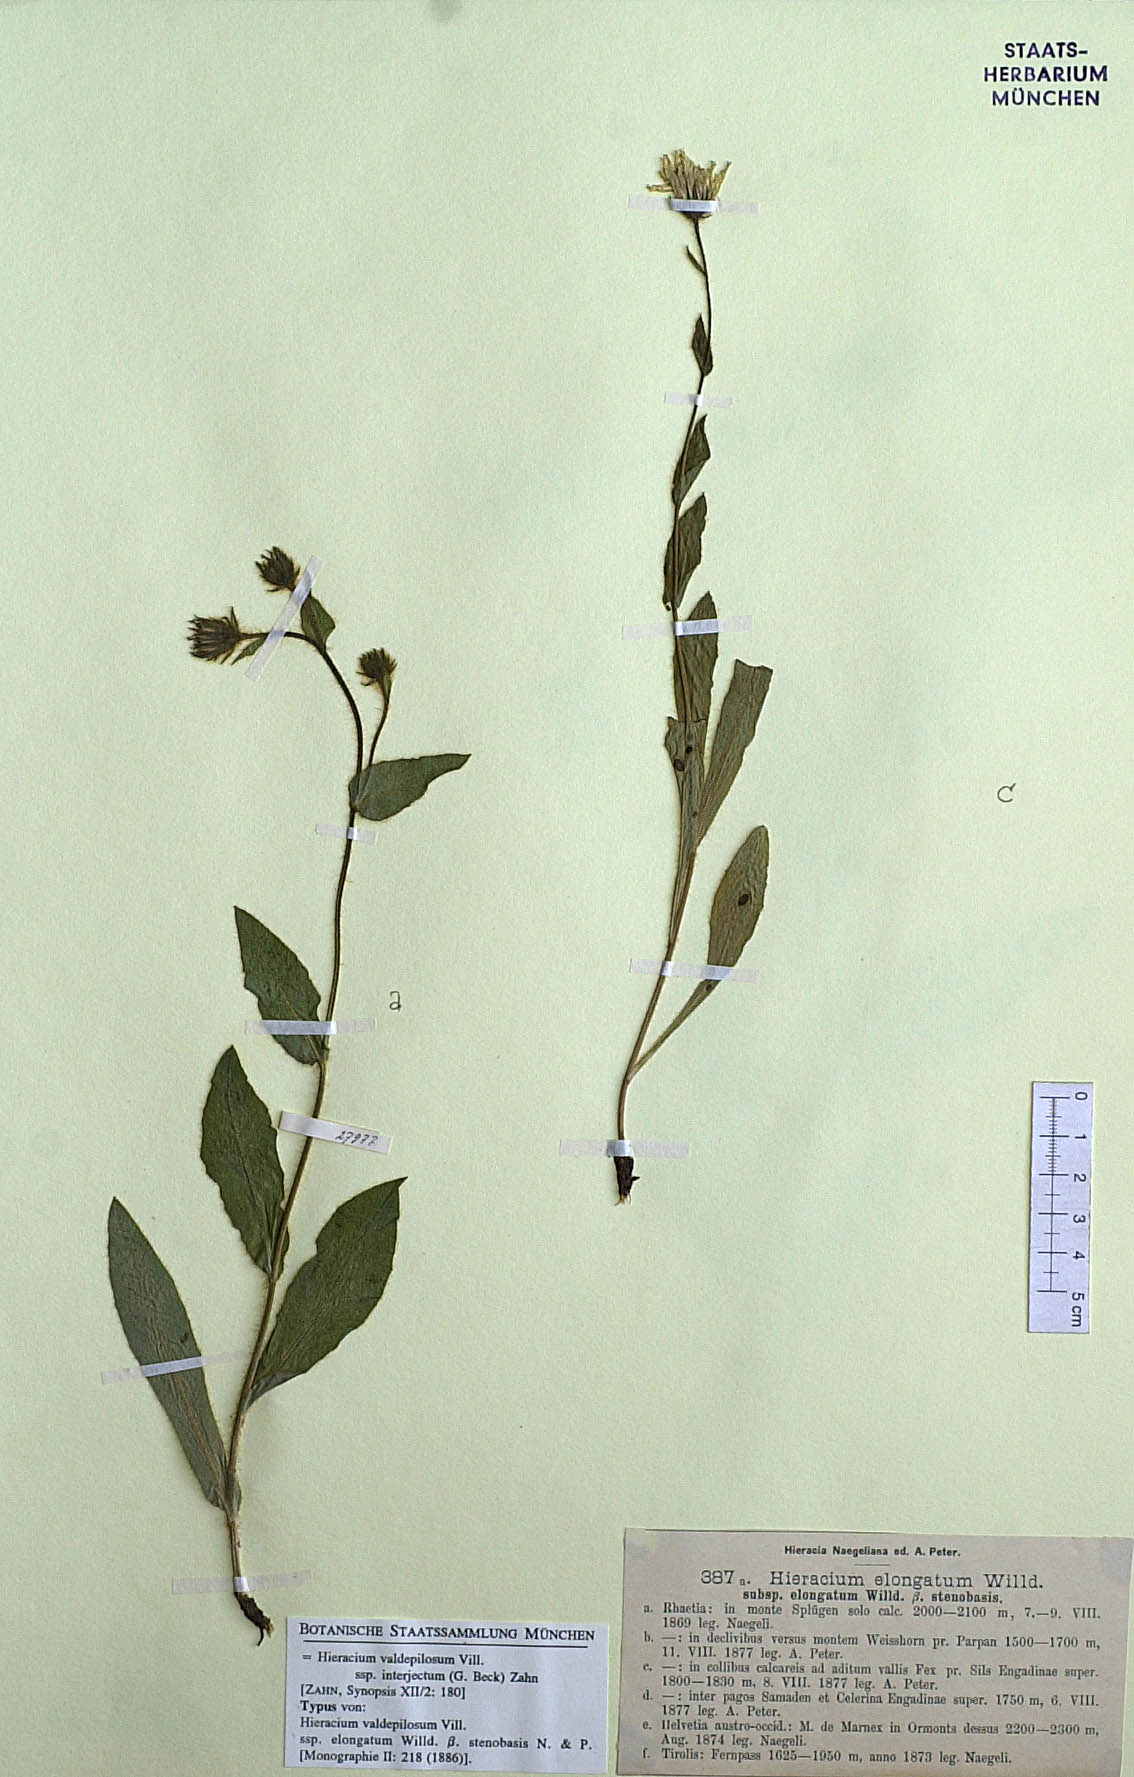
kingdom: Plantae
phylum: Tracheophyta
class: Magnoliopsida
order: Asterales
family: Asteraceae
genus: Hieracium
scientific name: Hieracium valdepilosum
